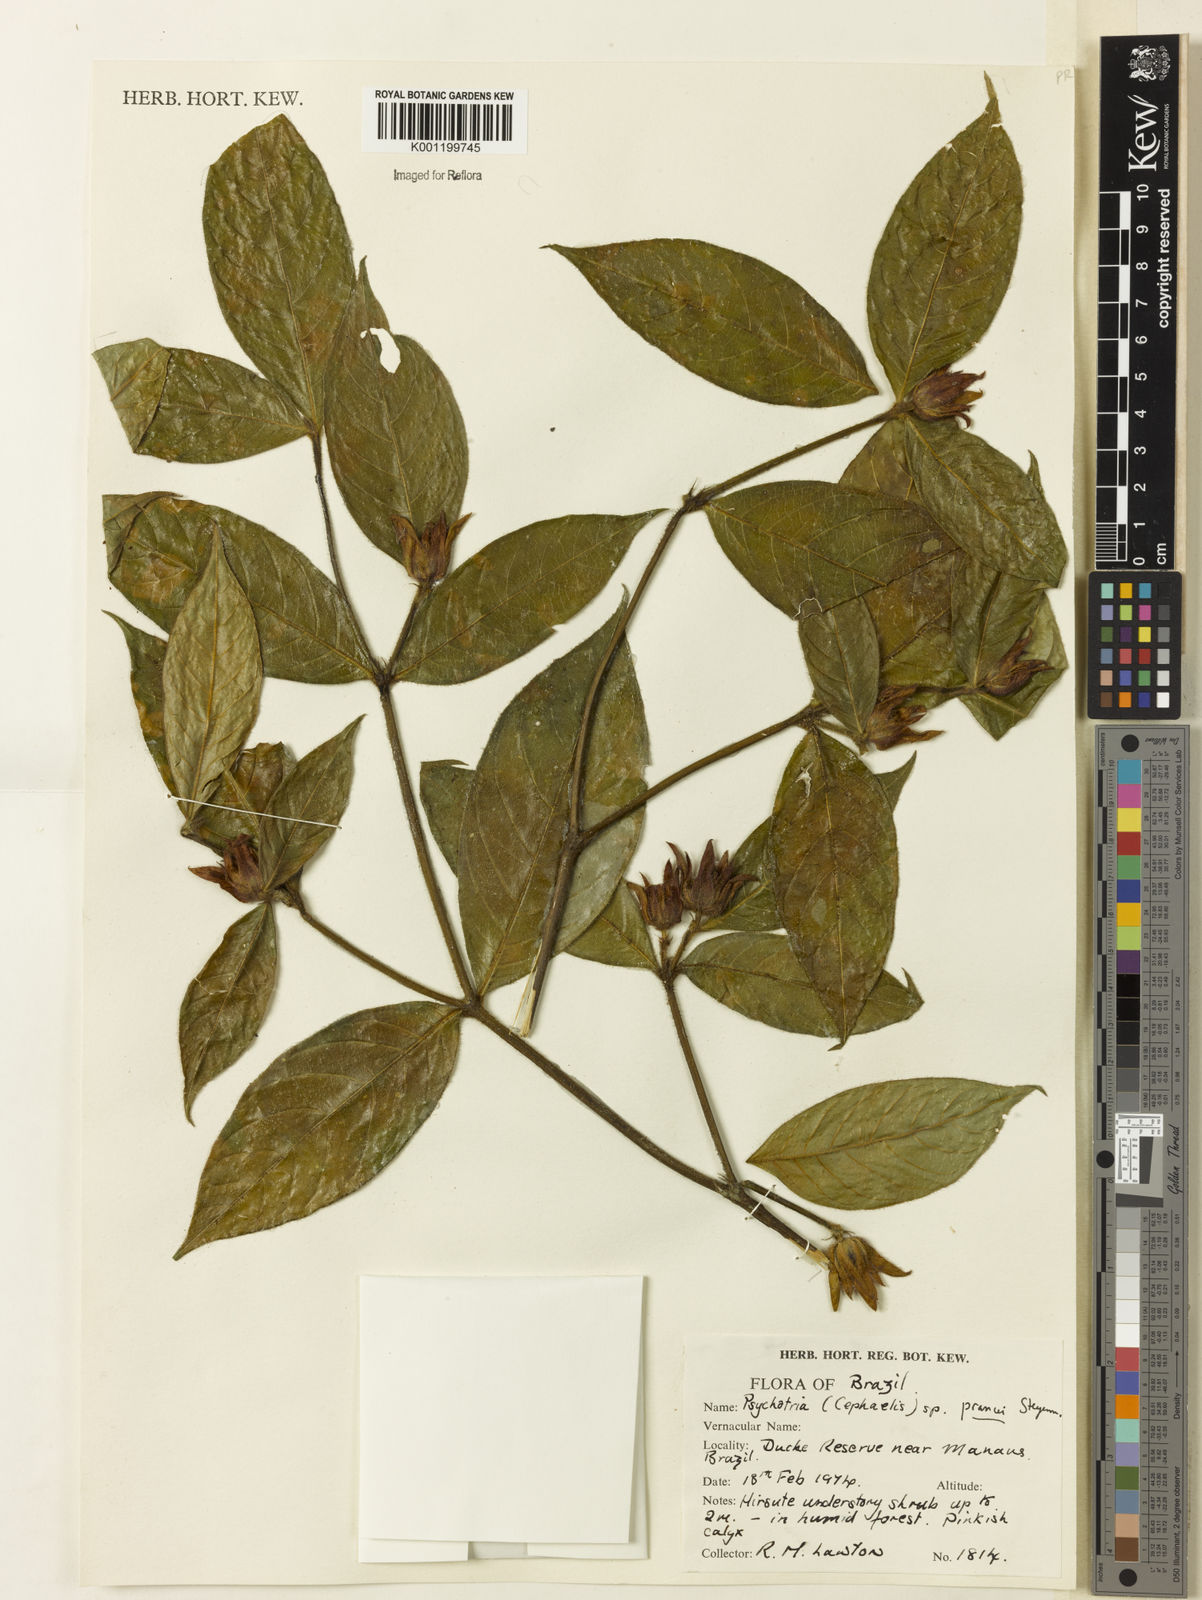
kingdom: Plantae
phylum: Tracheophyta
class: Magnoliopsida
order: Gentianales
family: Rubiaceae
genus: Palicourea
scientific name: Palicourea prancei
